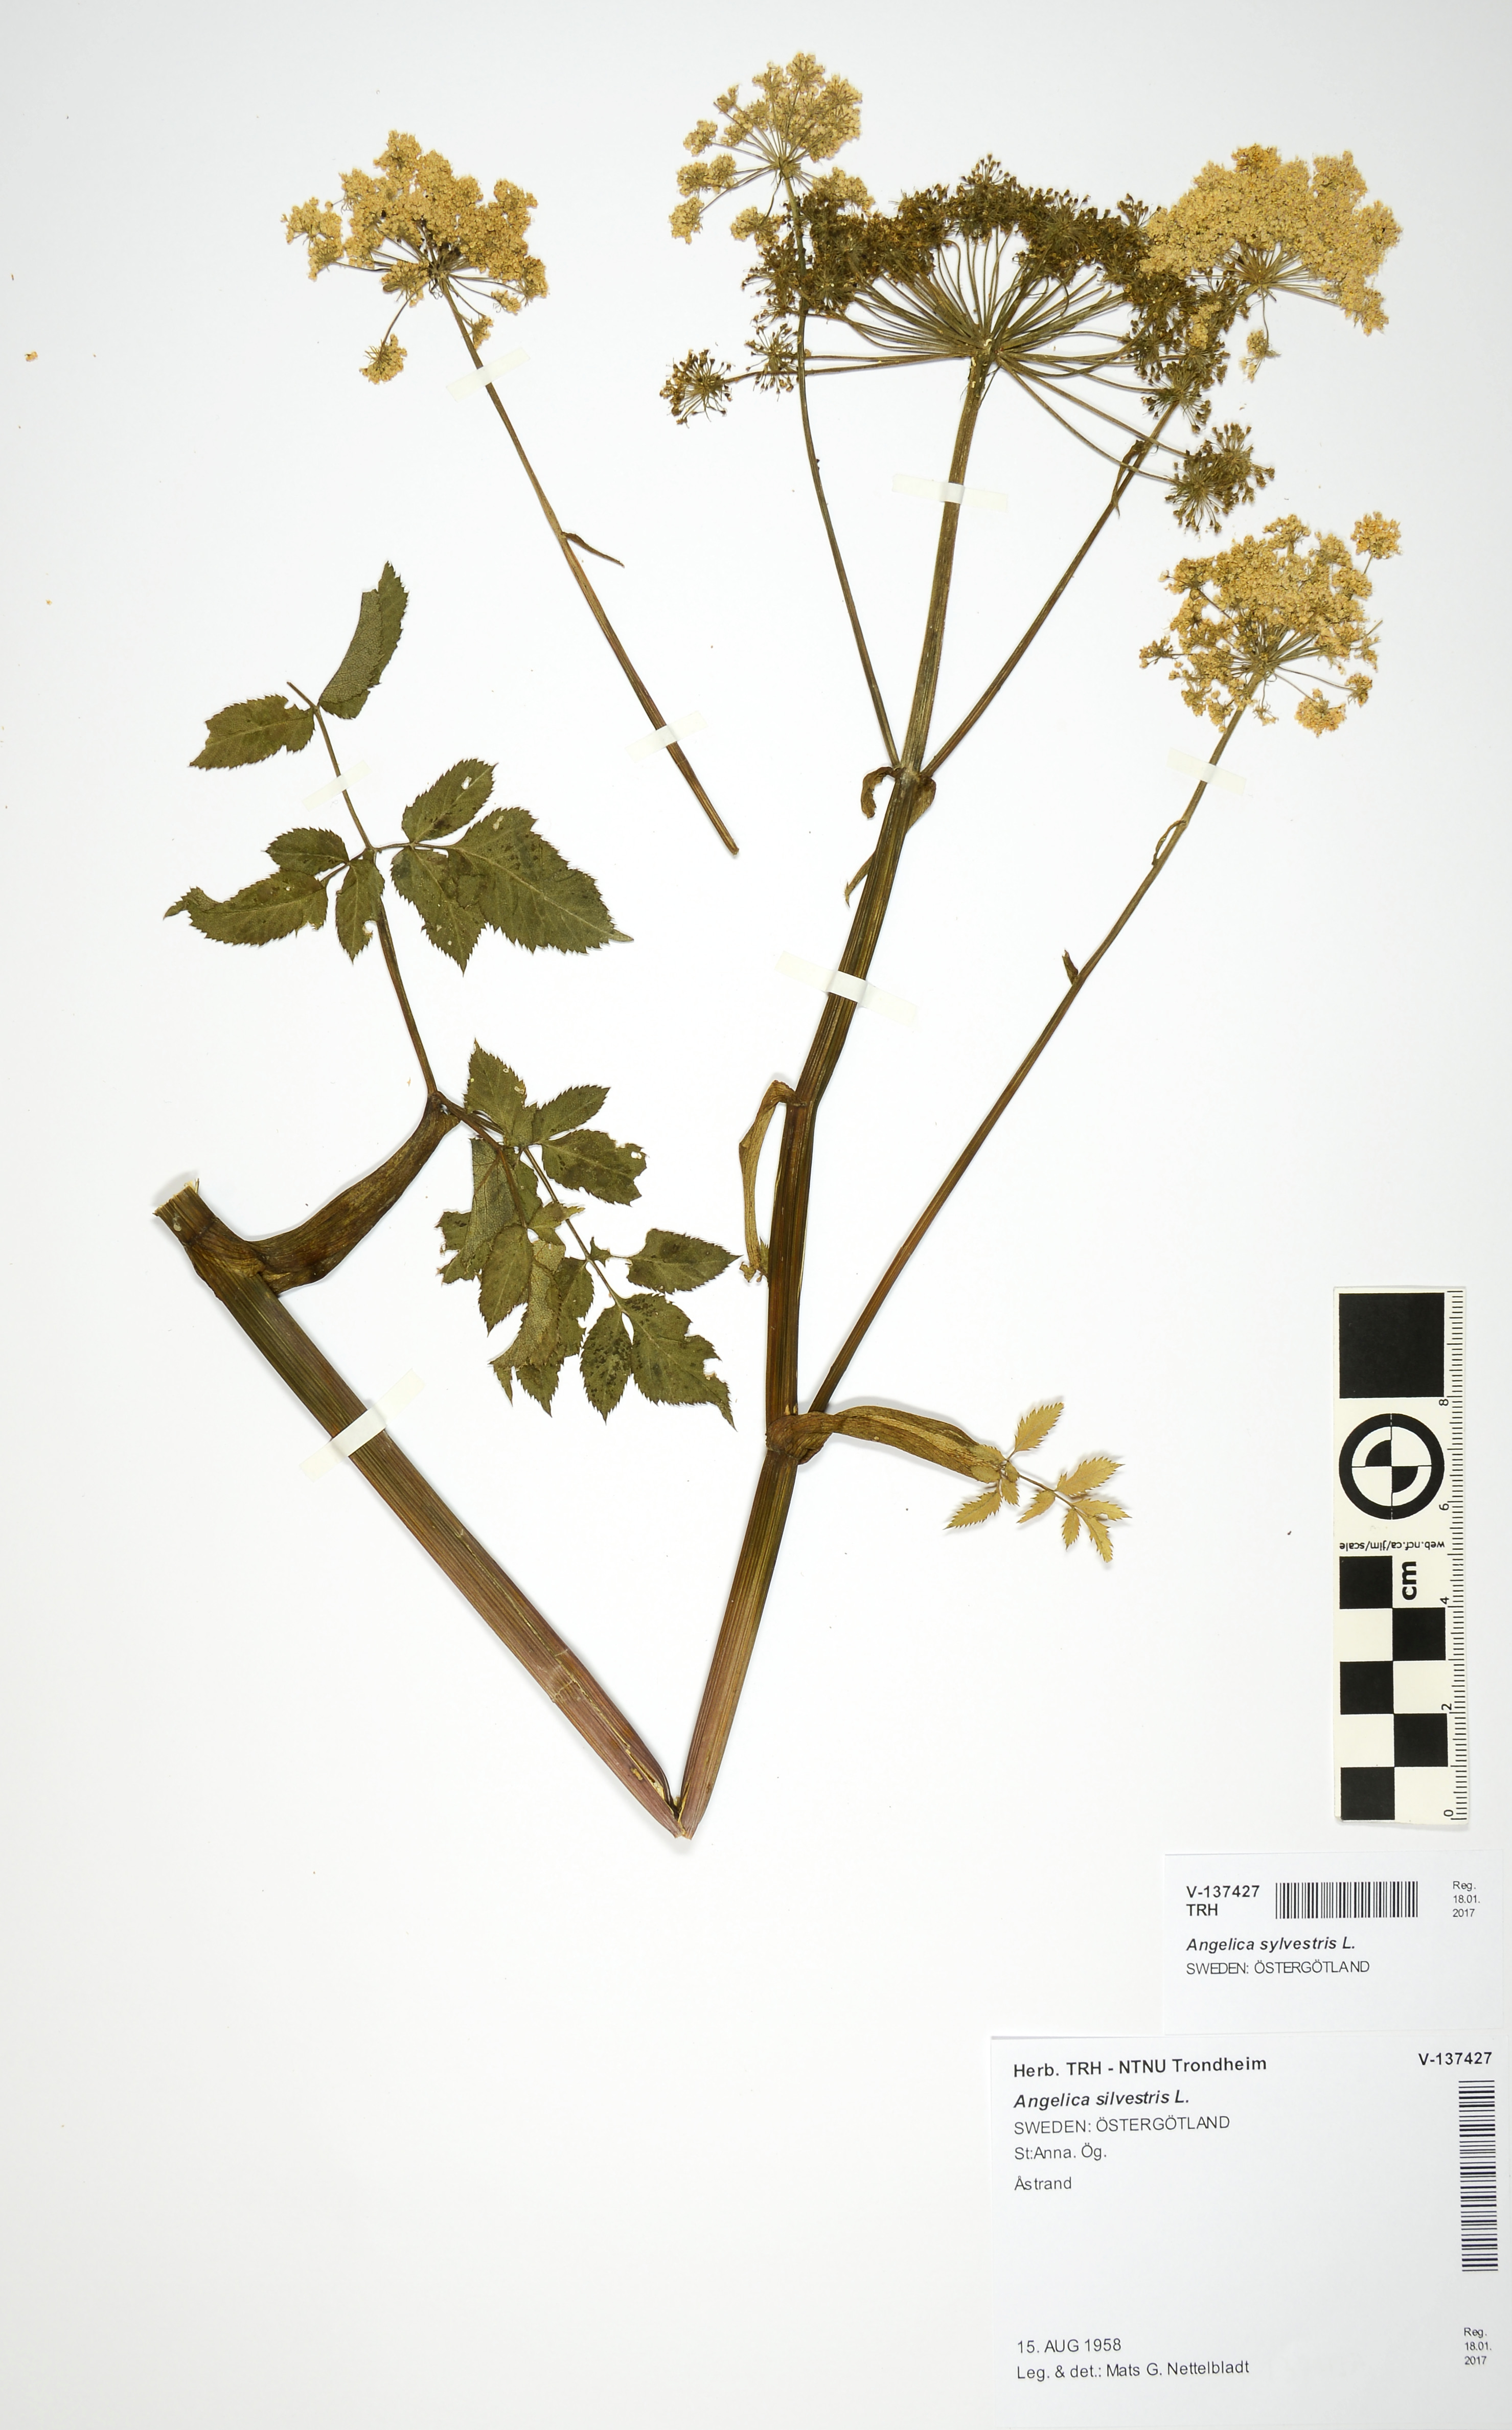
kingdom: Plantae
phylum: Tracheophyta
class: Magnoliopsida
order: Apiales
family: Apiaceae
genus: Angelica
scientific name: Angelica sylvestris
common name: Wild angelica
